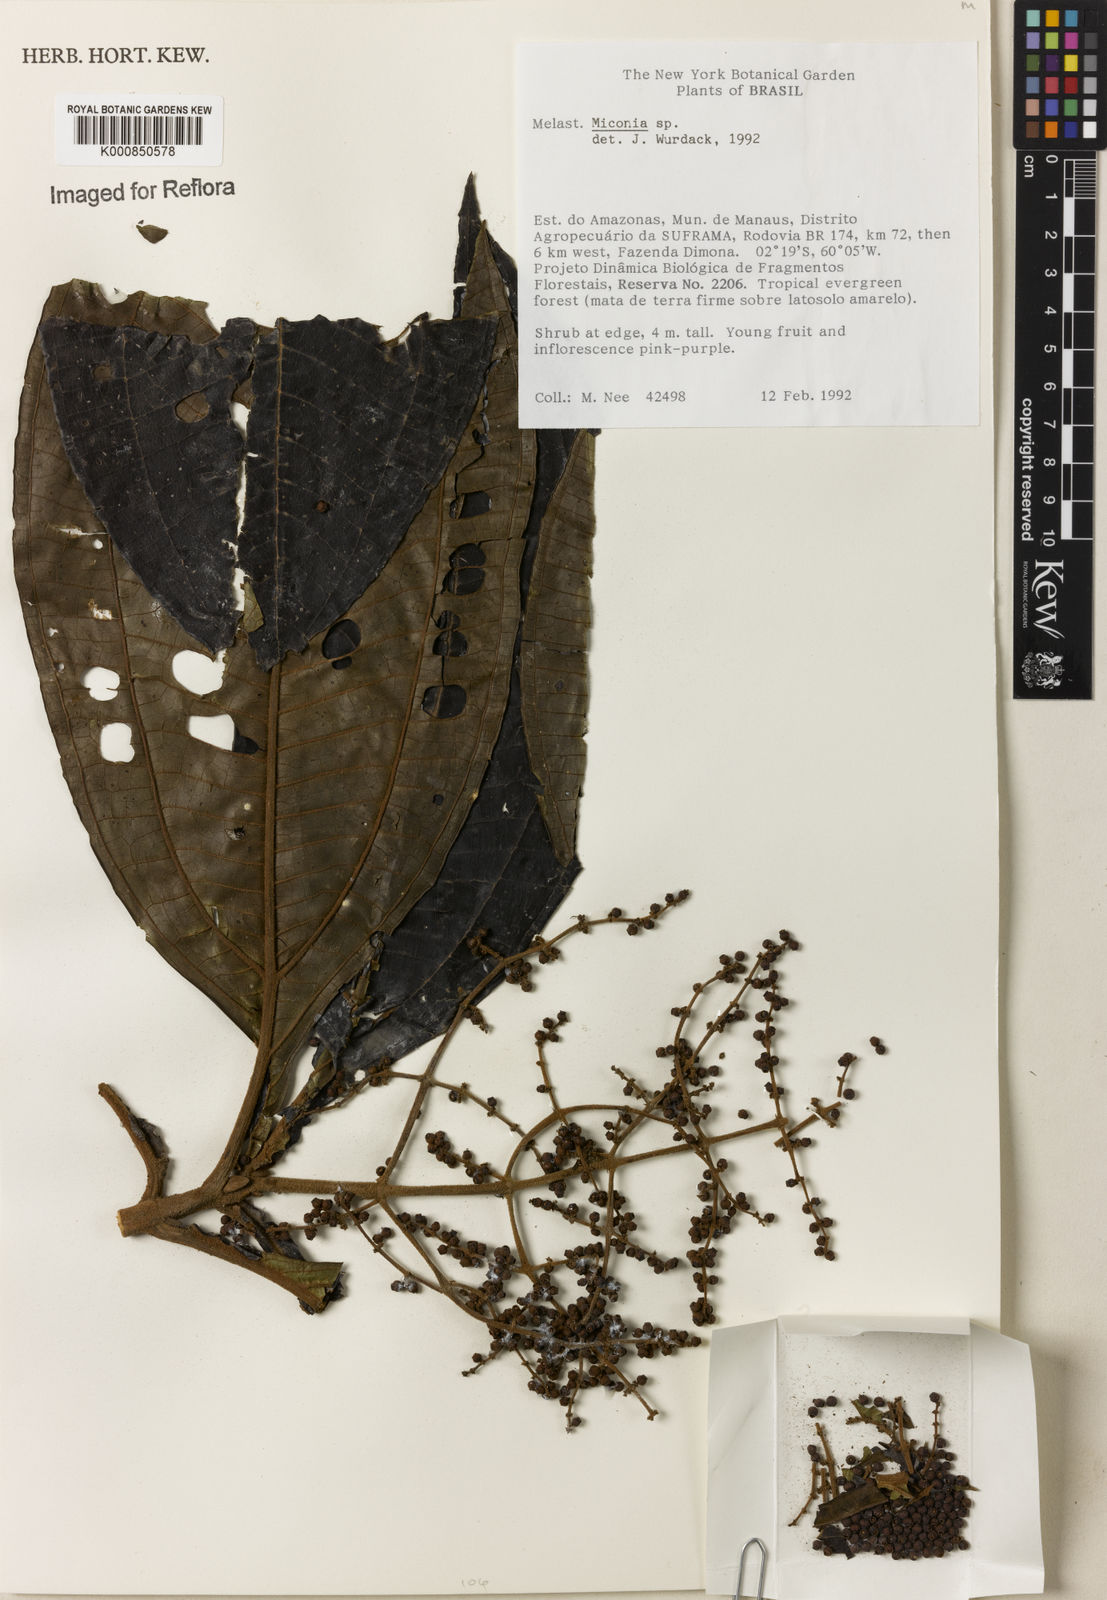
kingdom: Plantae
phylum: Tracheophyta
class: Magnoliopsida
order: Myrtales
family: Melastomataceae
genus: Miconia
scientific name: Miconia
